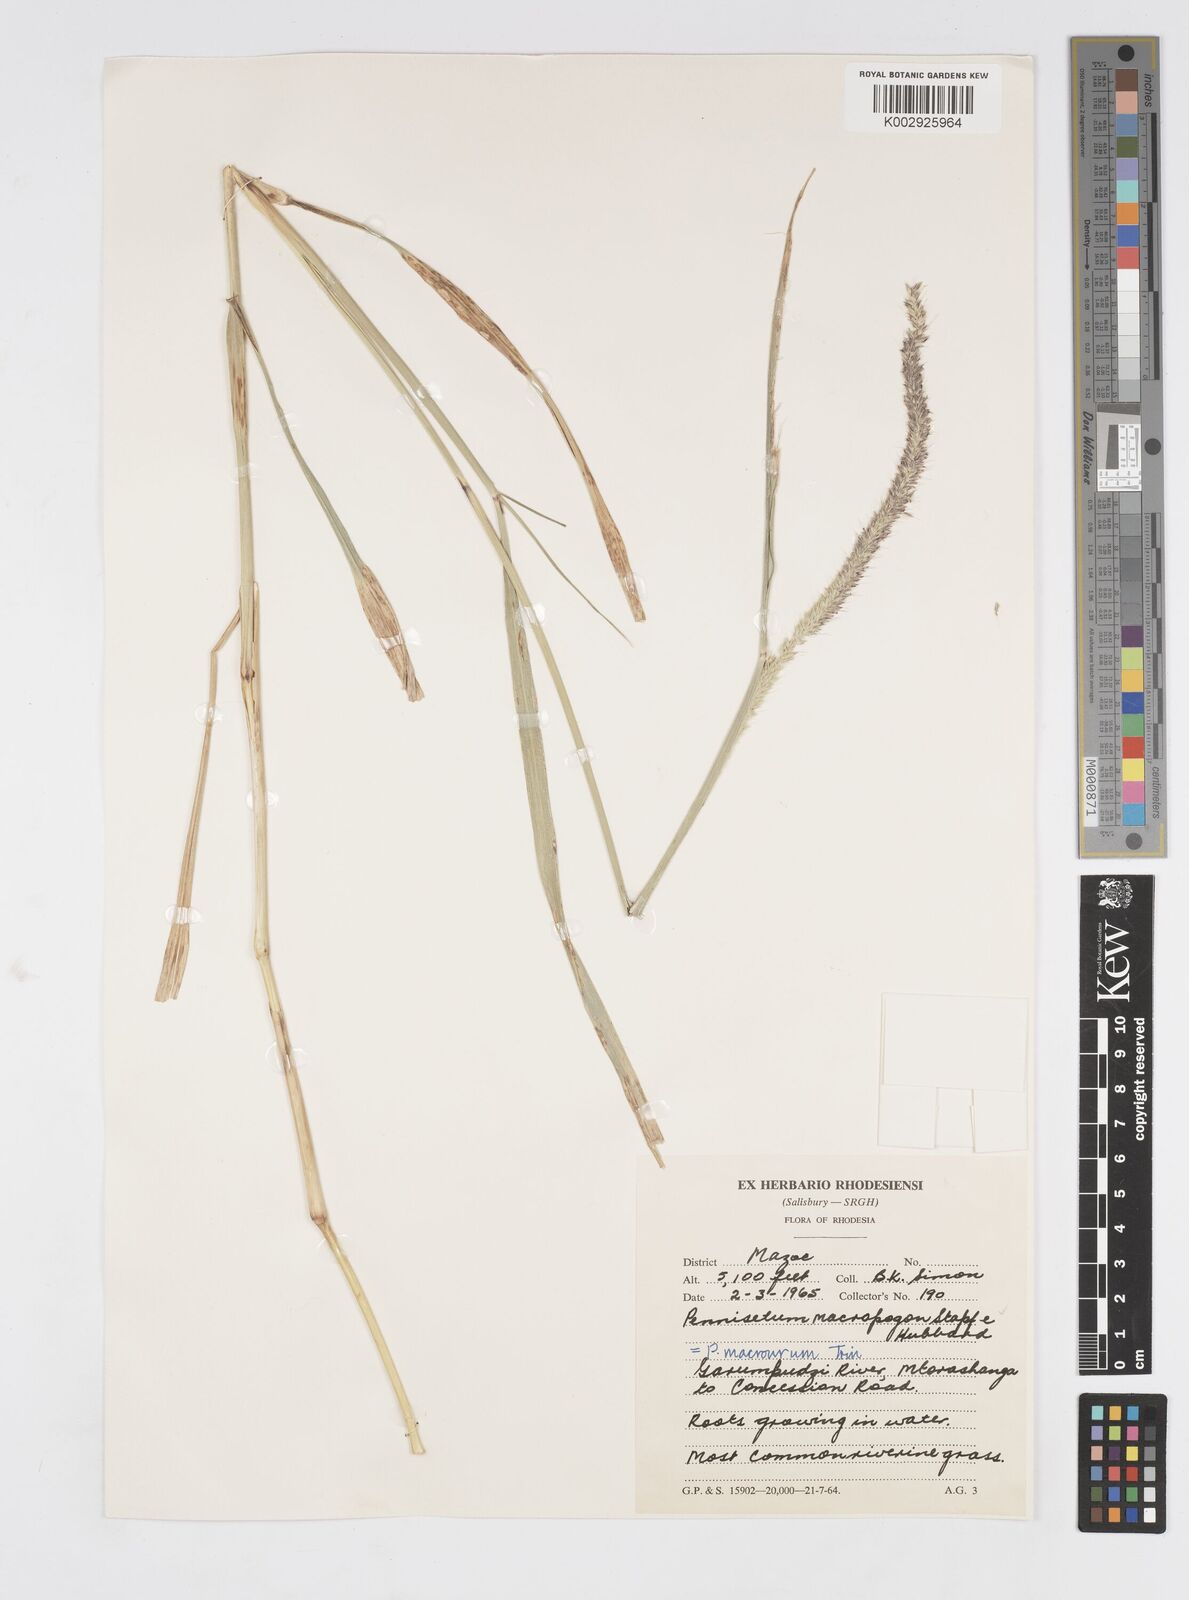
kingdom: Plantae
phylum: Tracheophyta
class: Liliopsida
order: Poales
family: Poaceae
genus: Cenchrus
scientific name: Cenchrus caudatus
